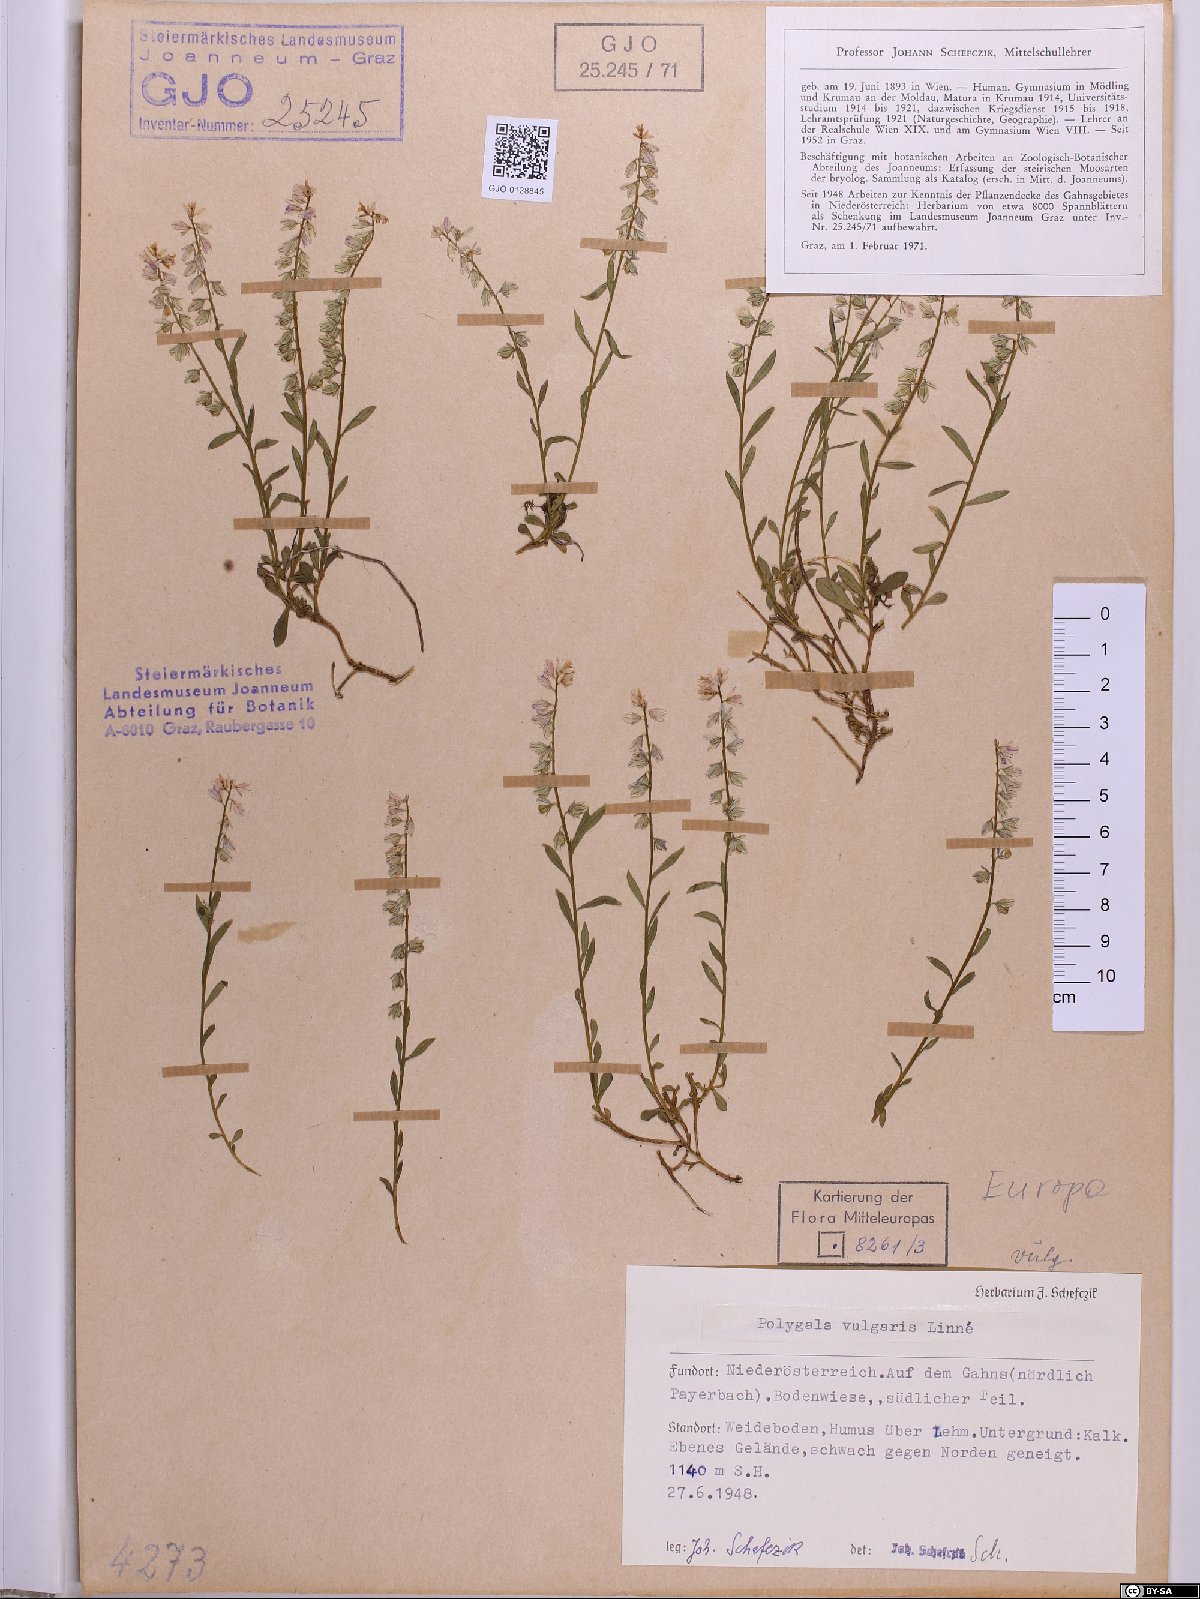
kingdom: Plantae
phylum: Tracheophyta
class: Magnoliopsida
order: Fabales
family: Polygalaceae
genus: Polygala
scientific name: Polygala vulgaris
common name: Common milkwort
